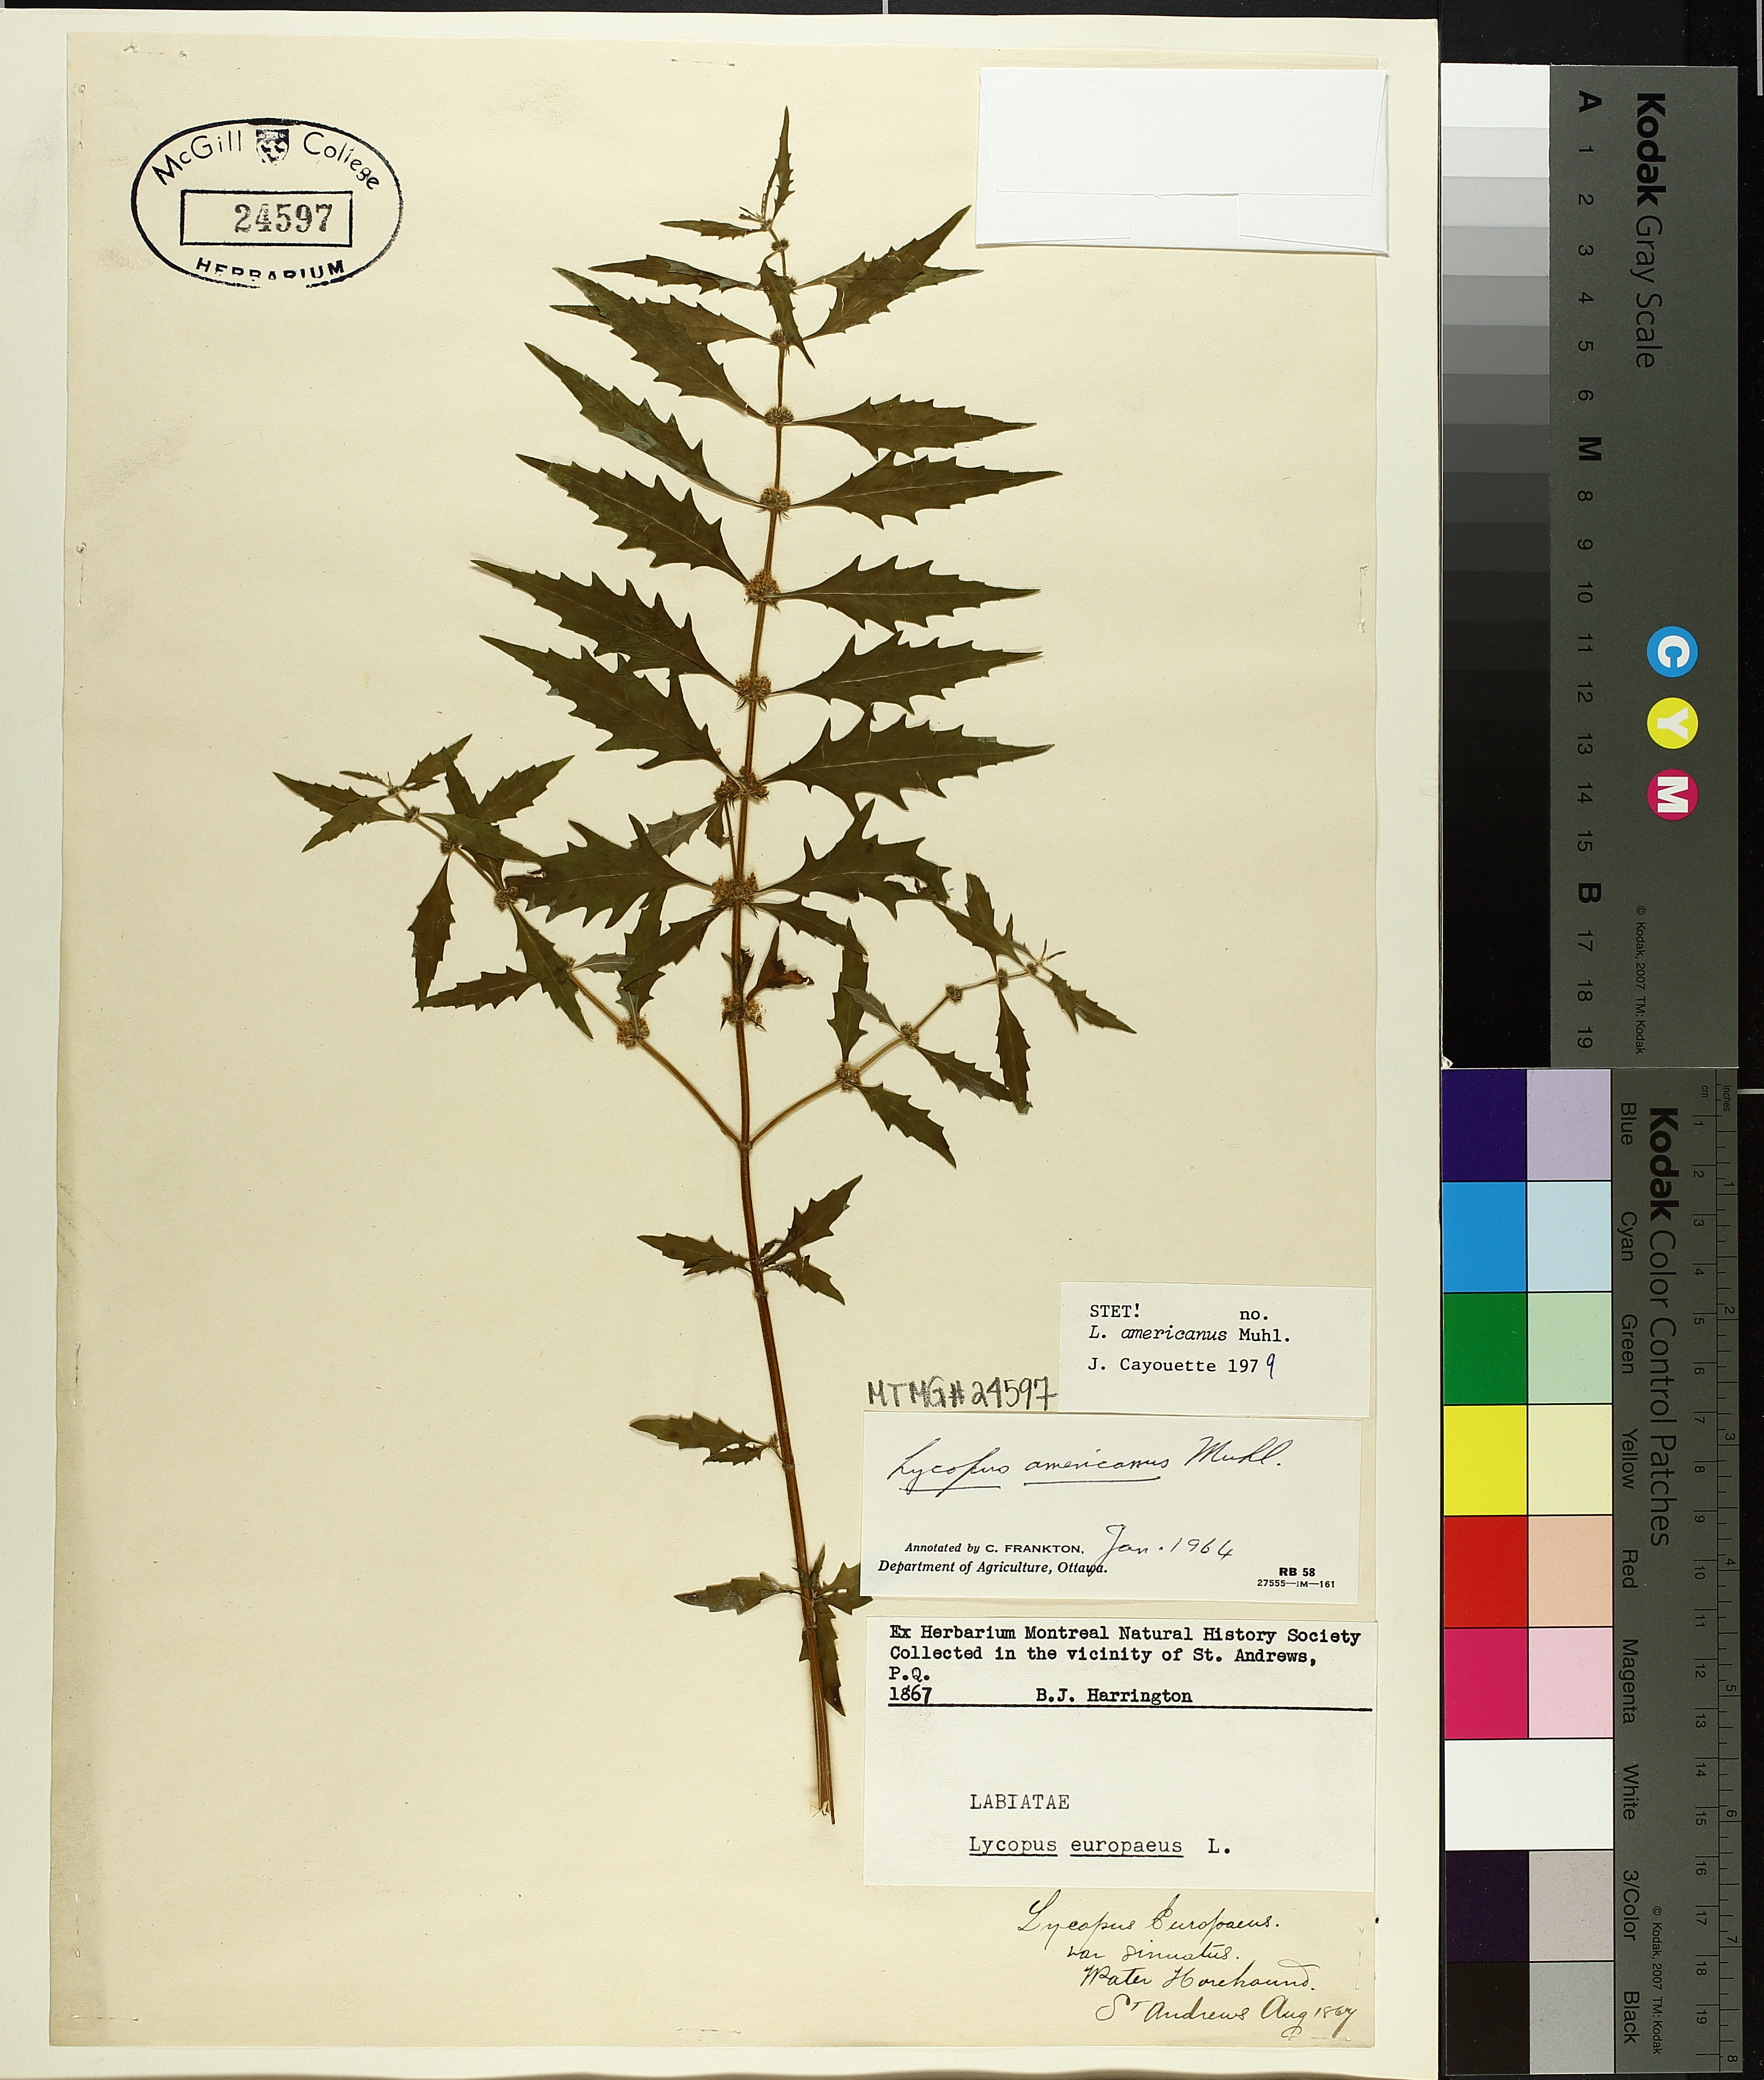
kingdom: Plantae
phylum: Tracheophyta
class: Magnoliopsida
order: Lamiales
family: Lamiaceae
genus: Lycopus
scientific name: Lycopus americanus
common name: American bugleweed
